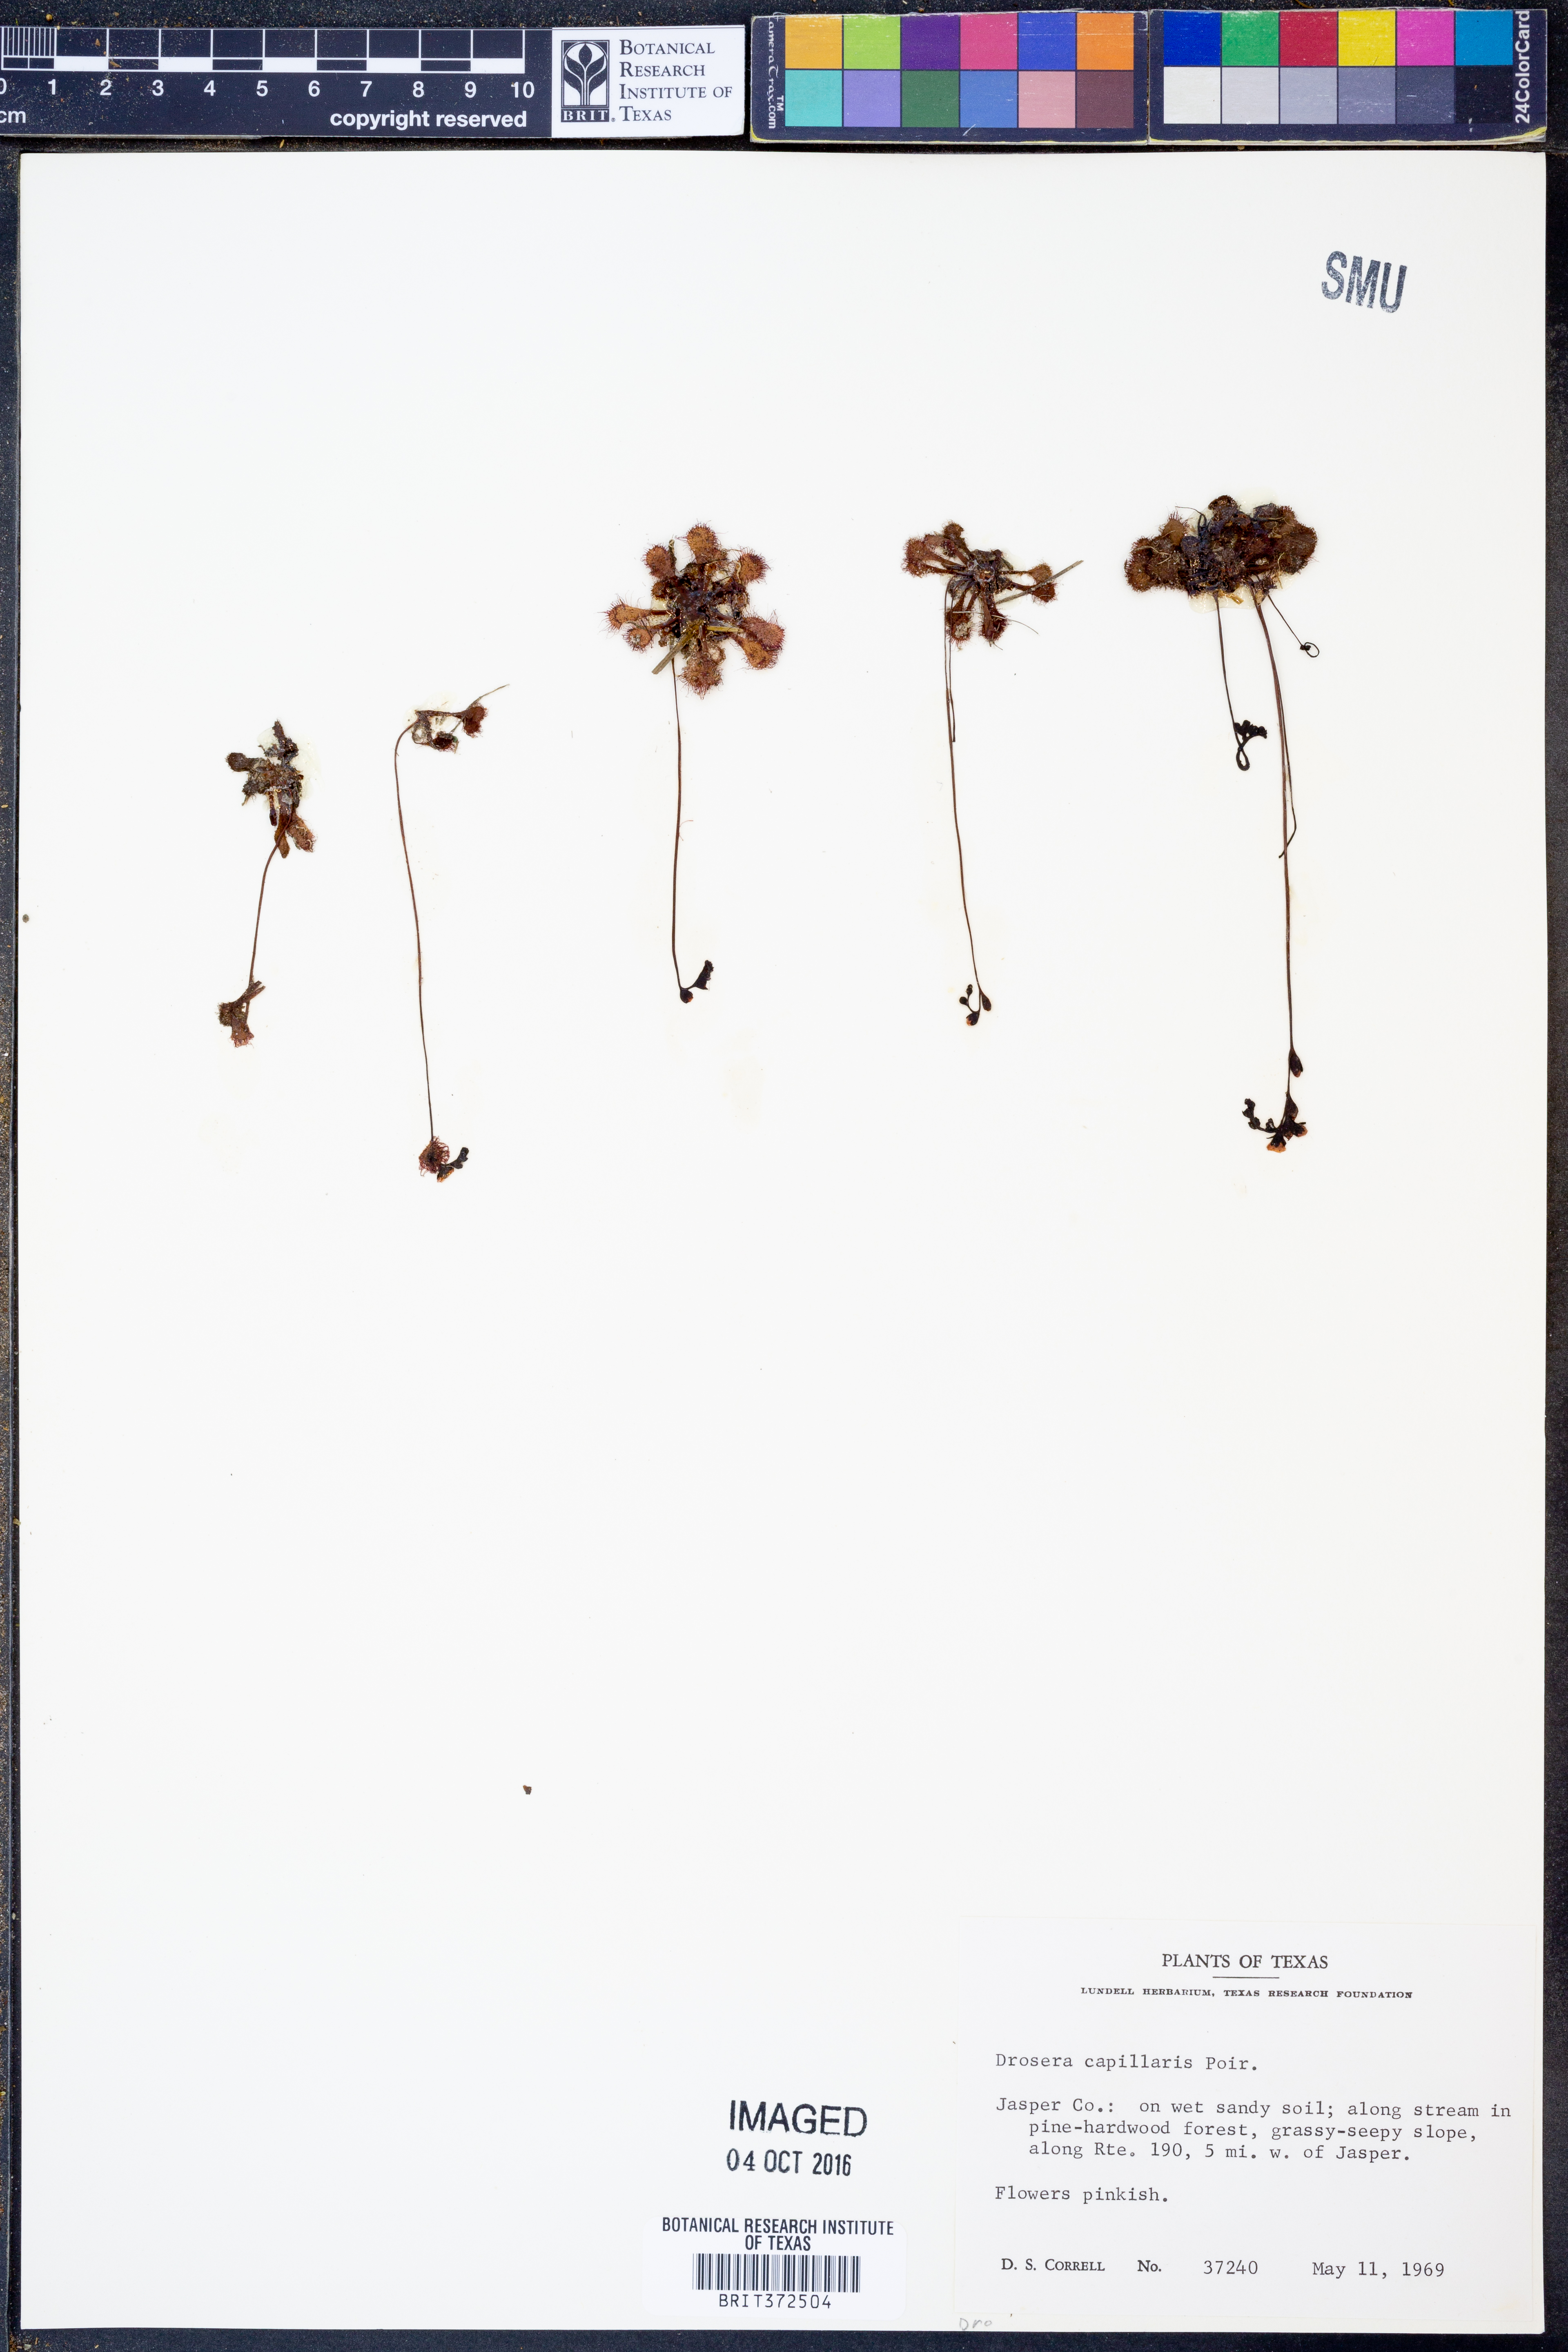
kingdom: Plantae
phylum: Tracheophyta
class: Magnoliopsida
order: Caryophyllales
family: Droseraceae
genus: Drosera
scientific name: Drosera capillaris
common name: Pink sundew
